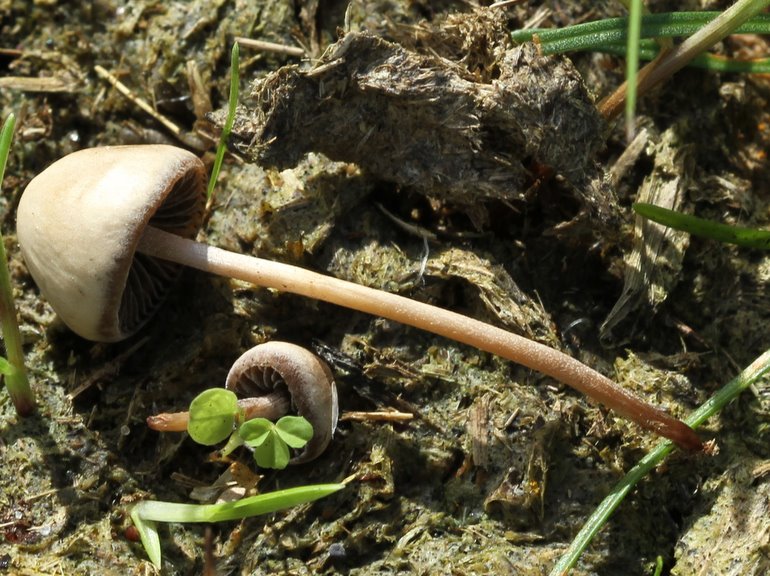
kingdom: Fungi
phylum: Basidiomycota
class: Agaricomycetes
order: Agaricales
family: Bolbitiaceae
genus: Panaeolus
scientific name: Panaeolus subfirmus
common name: fælled-glanshat
